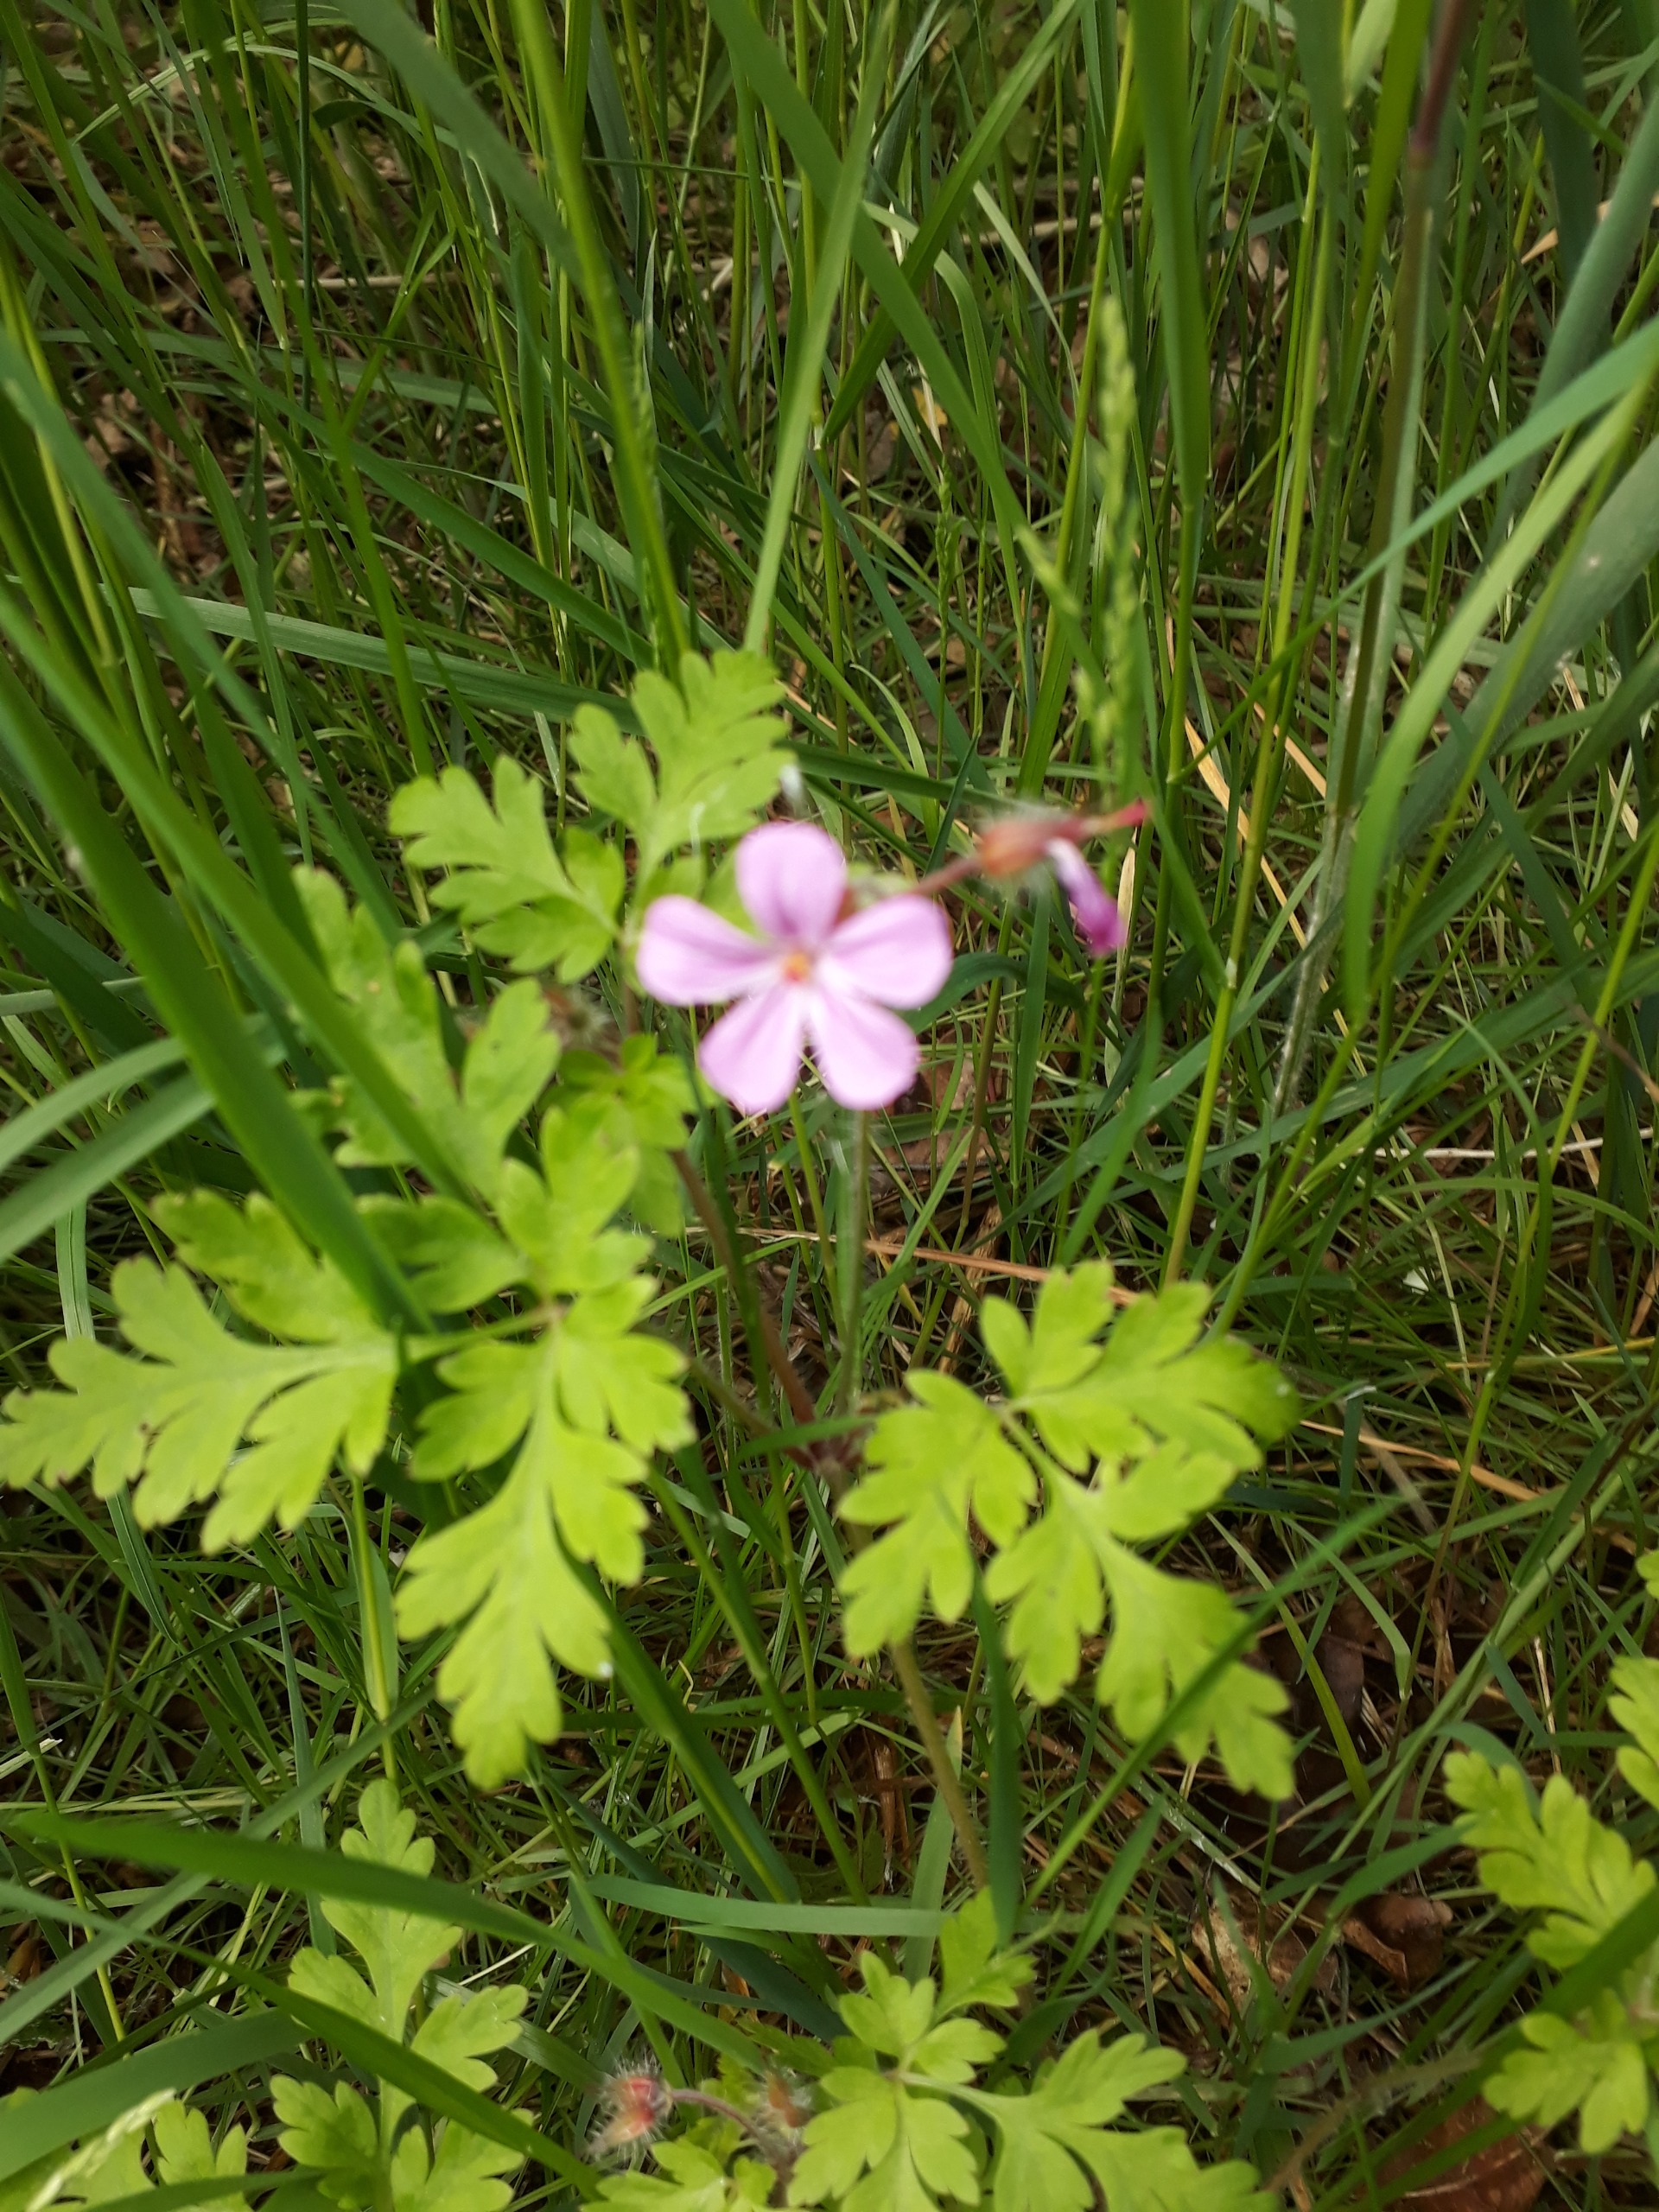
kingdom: Plantae
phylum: Tracheophyta
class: Magnoliopsida
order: Geraniales
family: Geraniaceae
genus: Geranium
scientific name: Geranium robertianum
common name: Stinkende storkenæb
